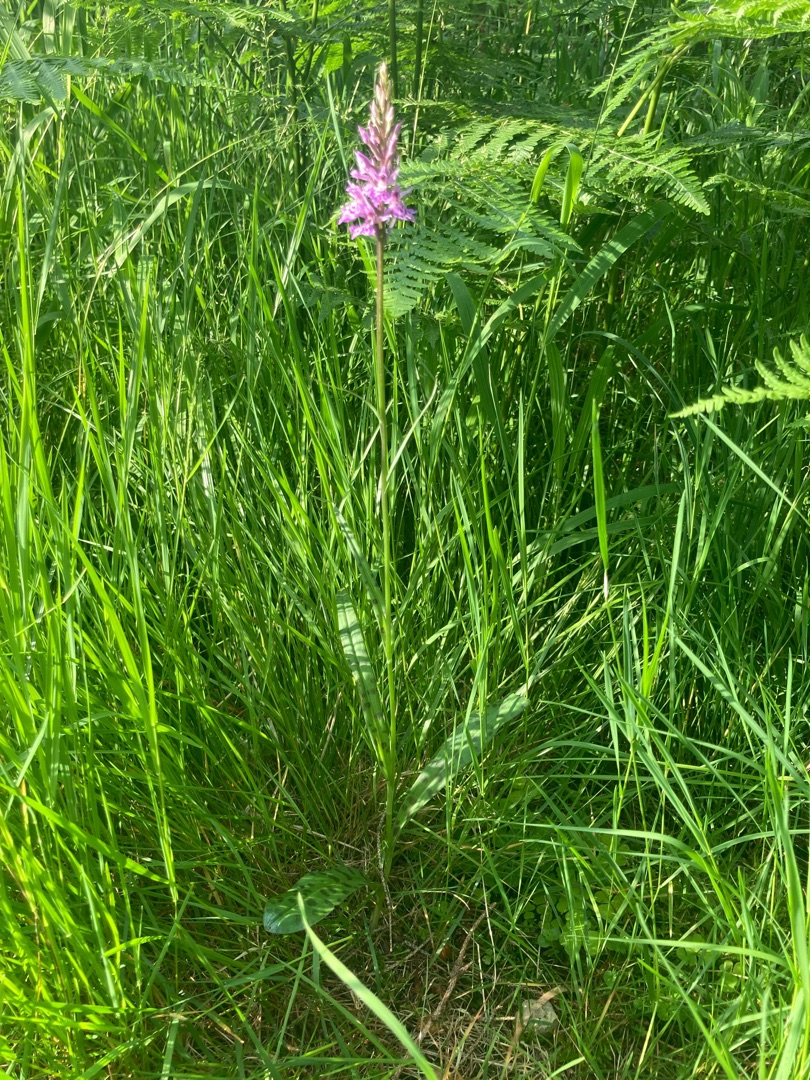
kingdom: Plantae
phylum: Tracheophyta
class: Liliopsida
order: Asparagales
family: Orchidaceae
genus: Dactylorhiza
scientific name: Dactylorhiza maculata
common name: Skov-gøgeurt
